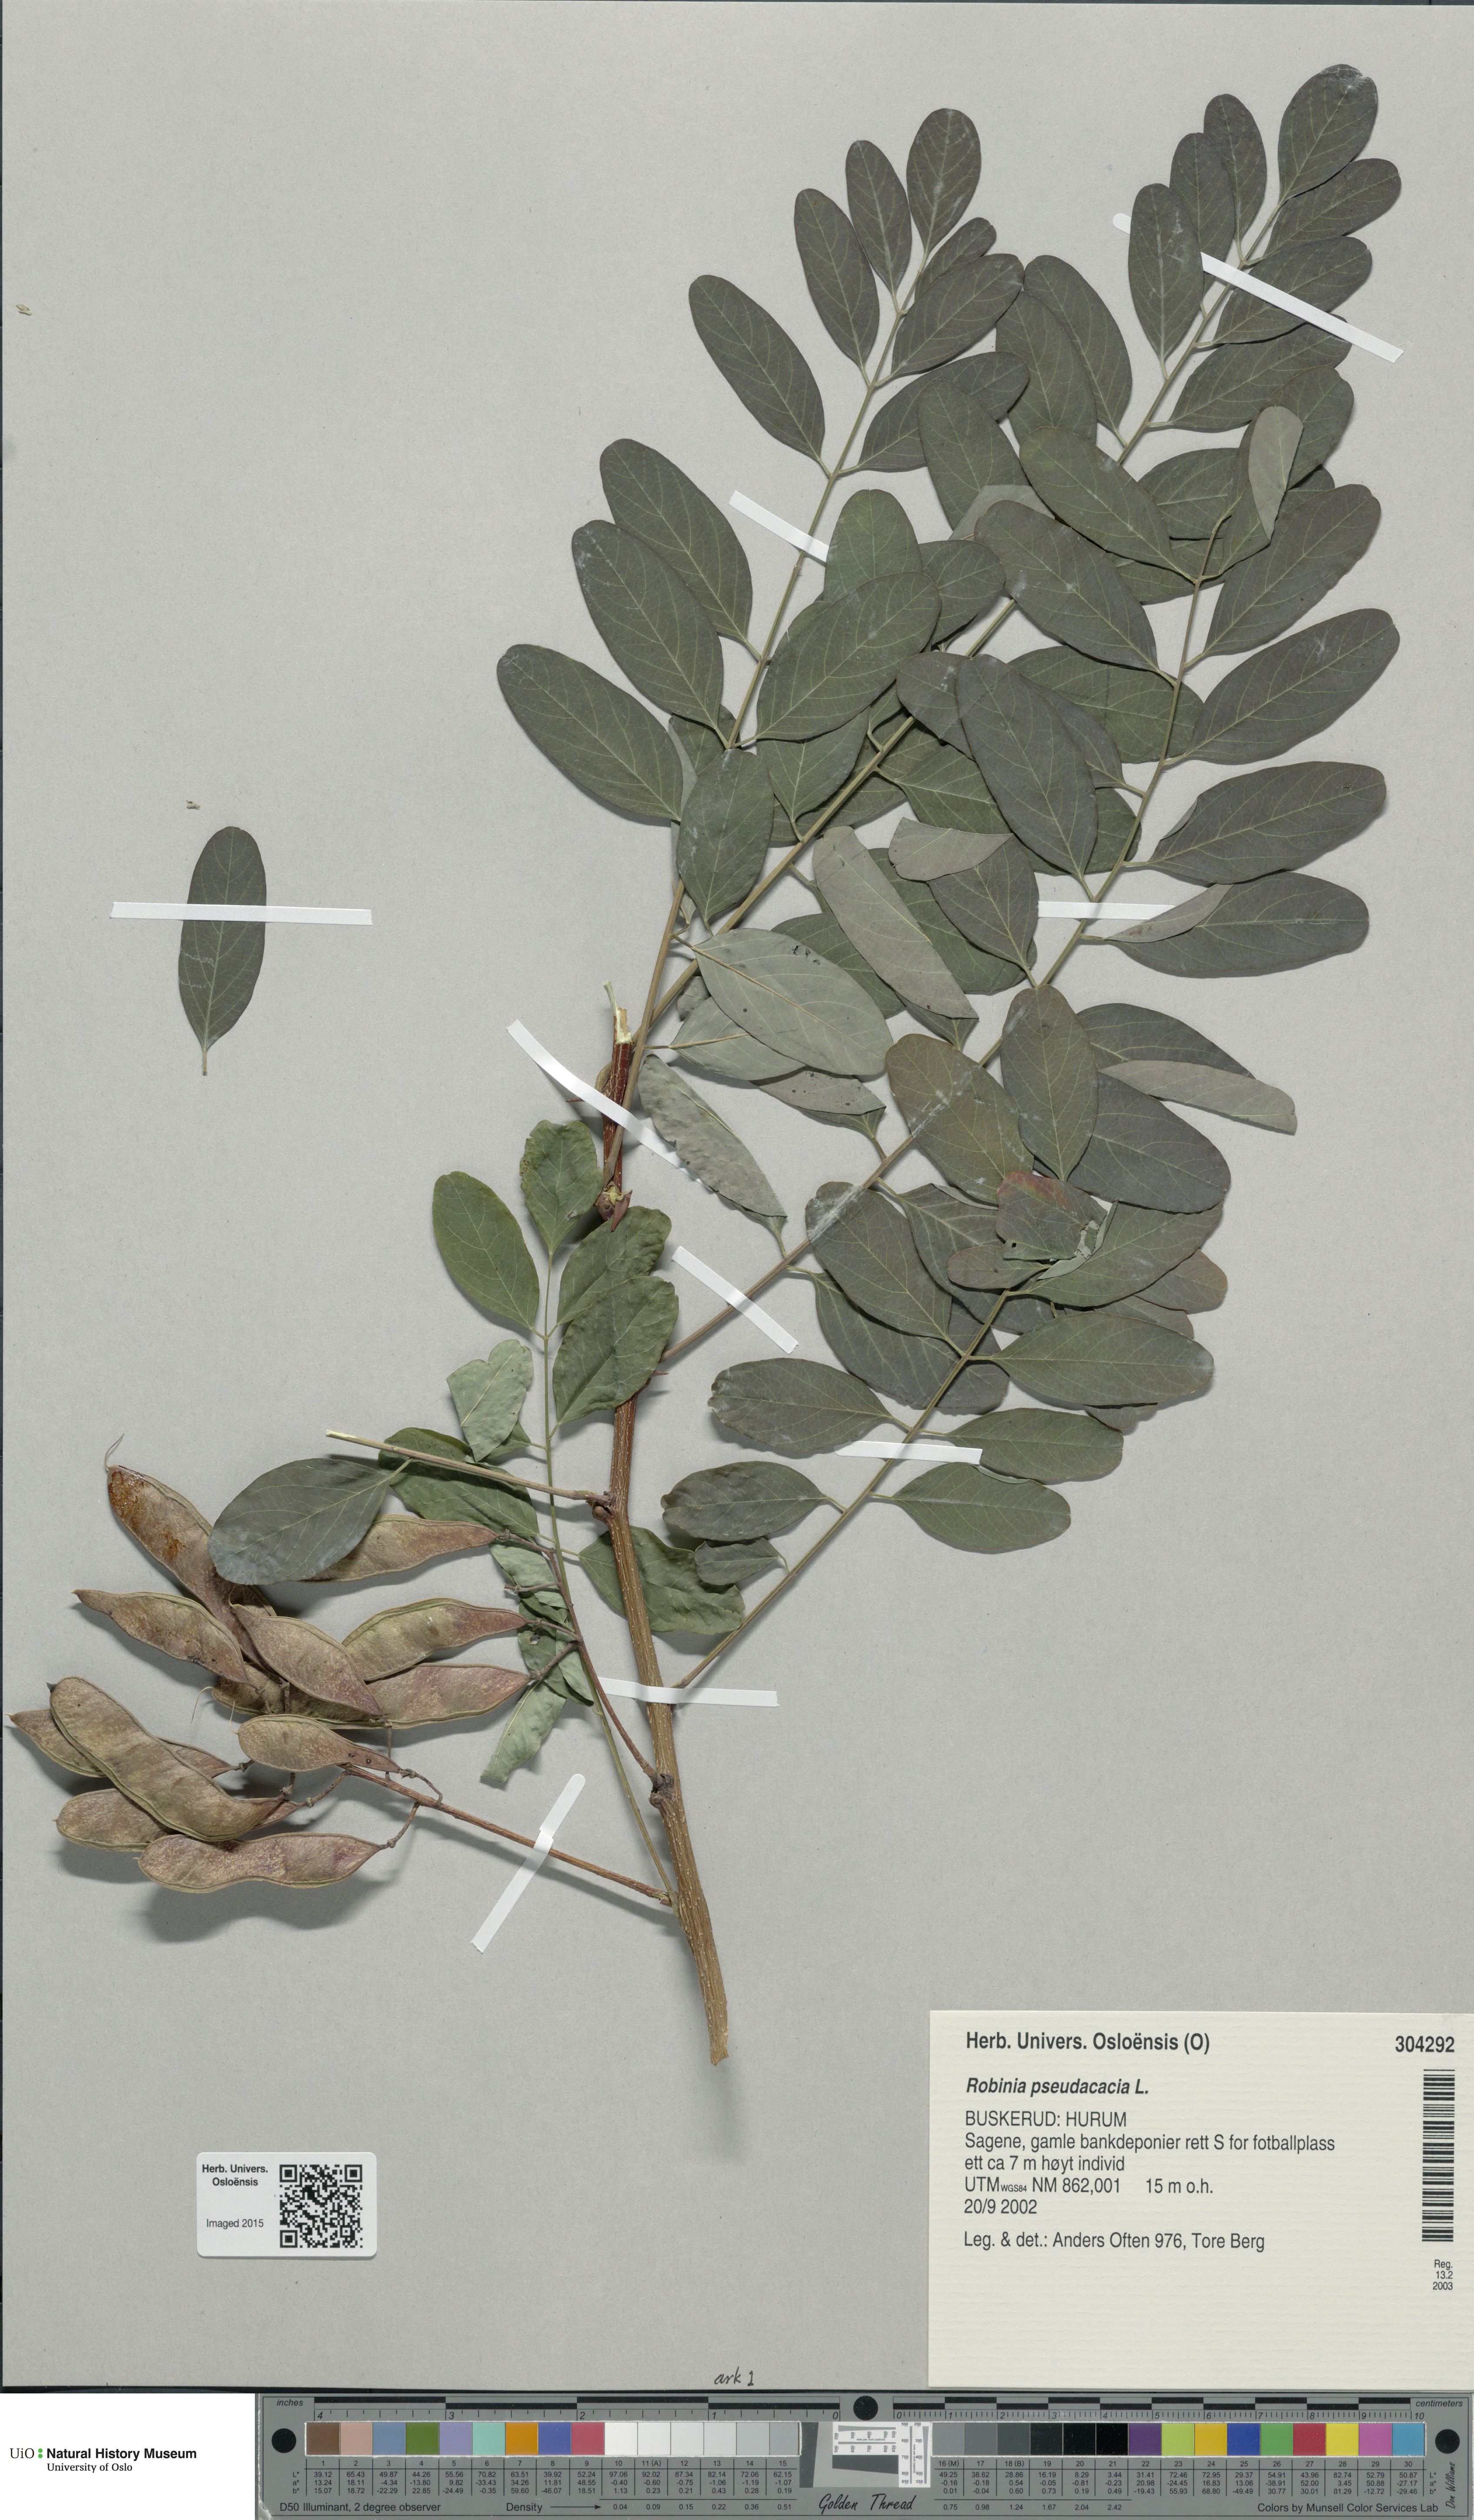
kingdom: Plantae
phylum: Tracheophyta
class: Magnoliopsida
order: Fabales
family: Fabaceae
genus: Robinia
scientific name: Robinia pseudoacacia
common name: Black locust
